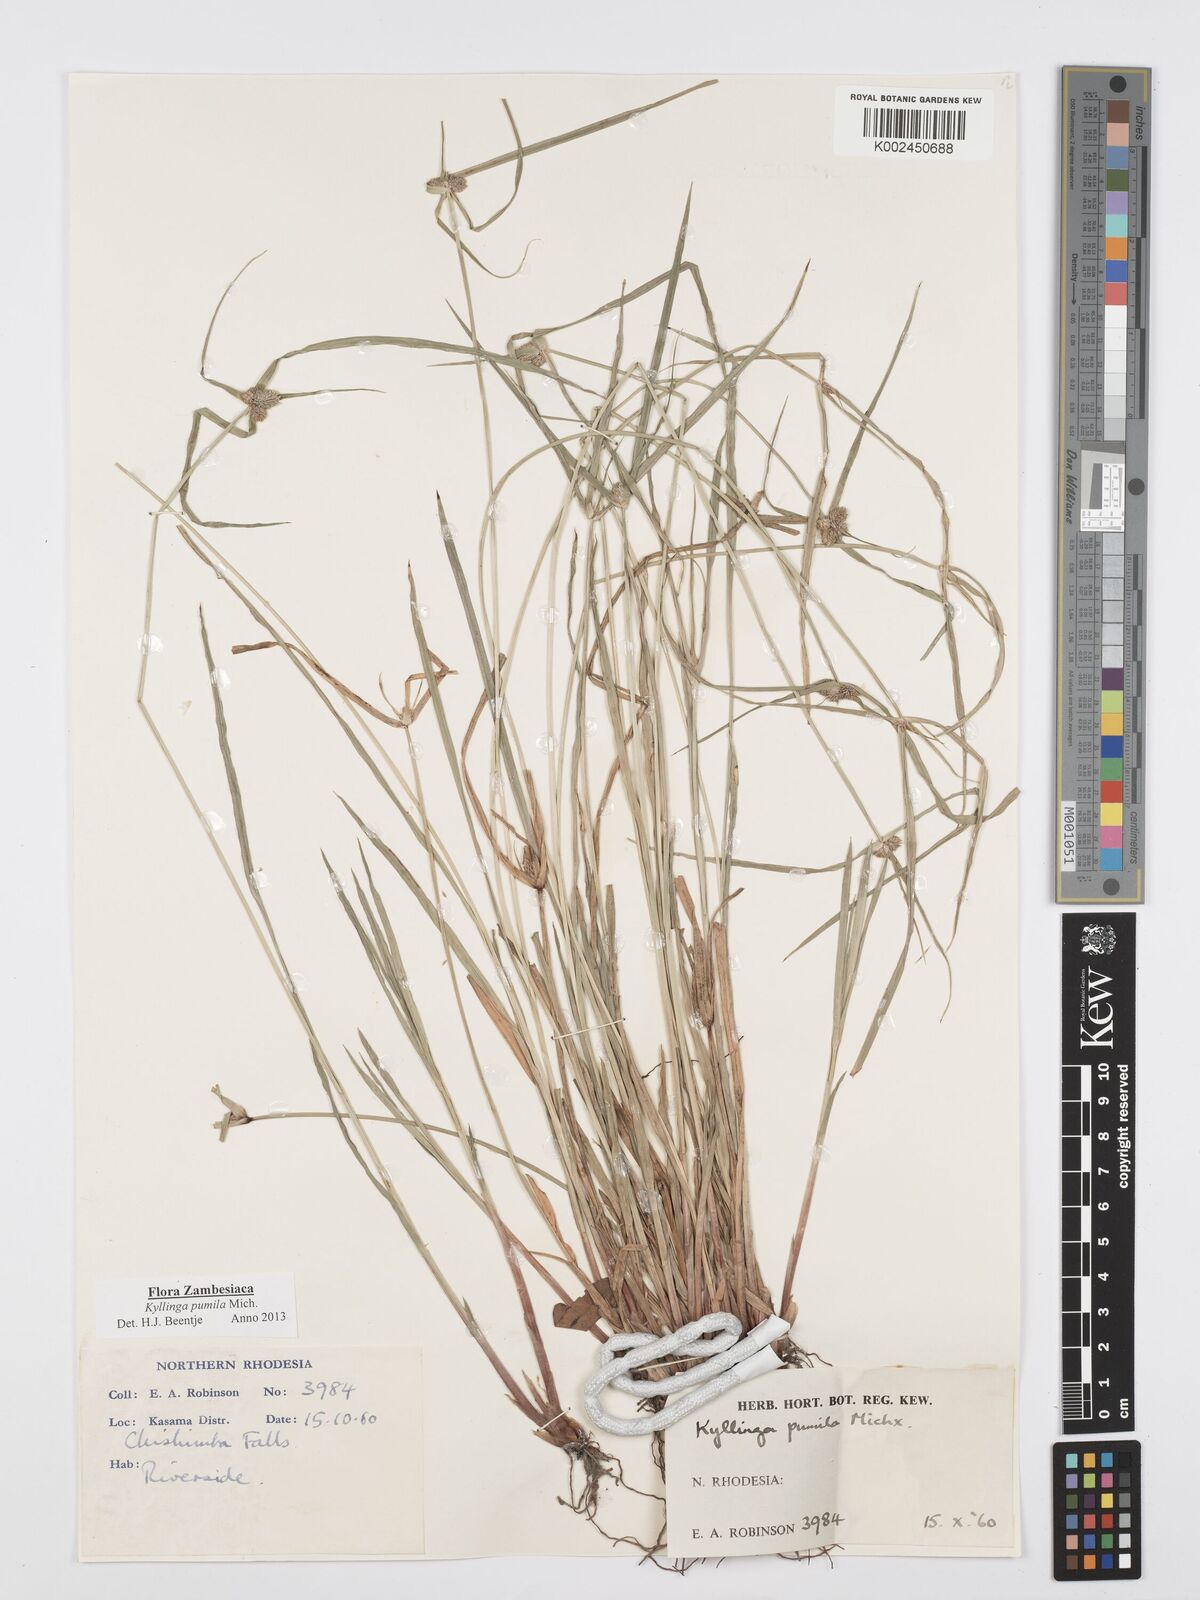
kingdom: Plantae
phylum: Tracheophyta
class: Liliopsida
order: Poales
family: Cyperaceae
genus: Cyperus
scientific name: Cyperus pumilus
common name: Low flatsedge
